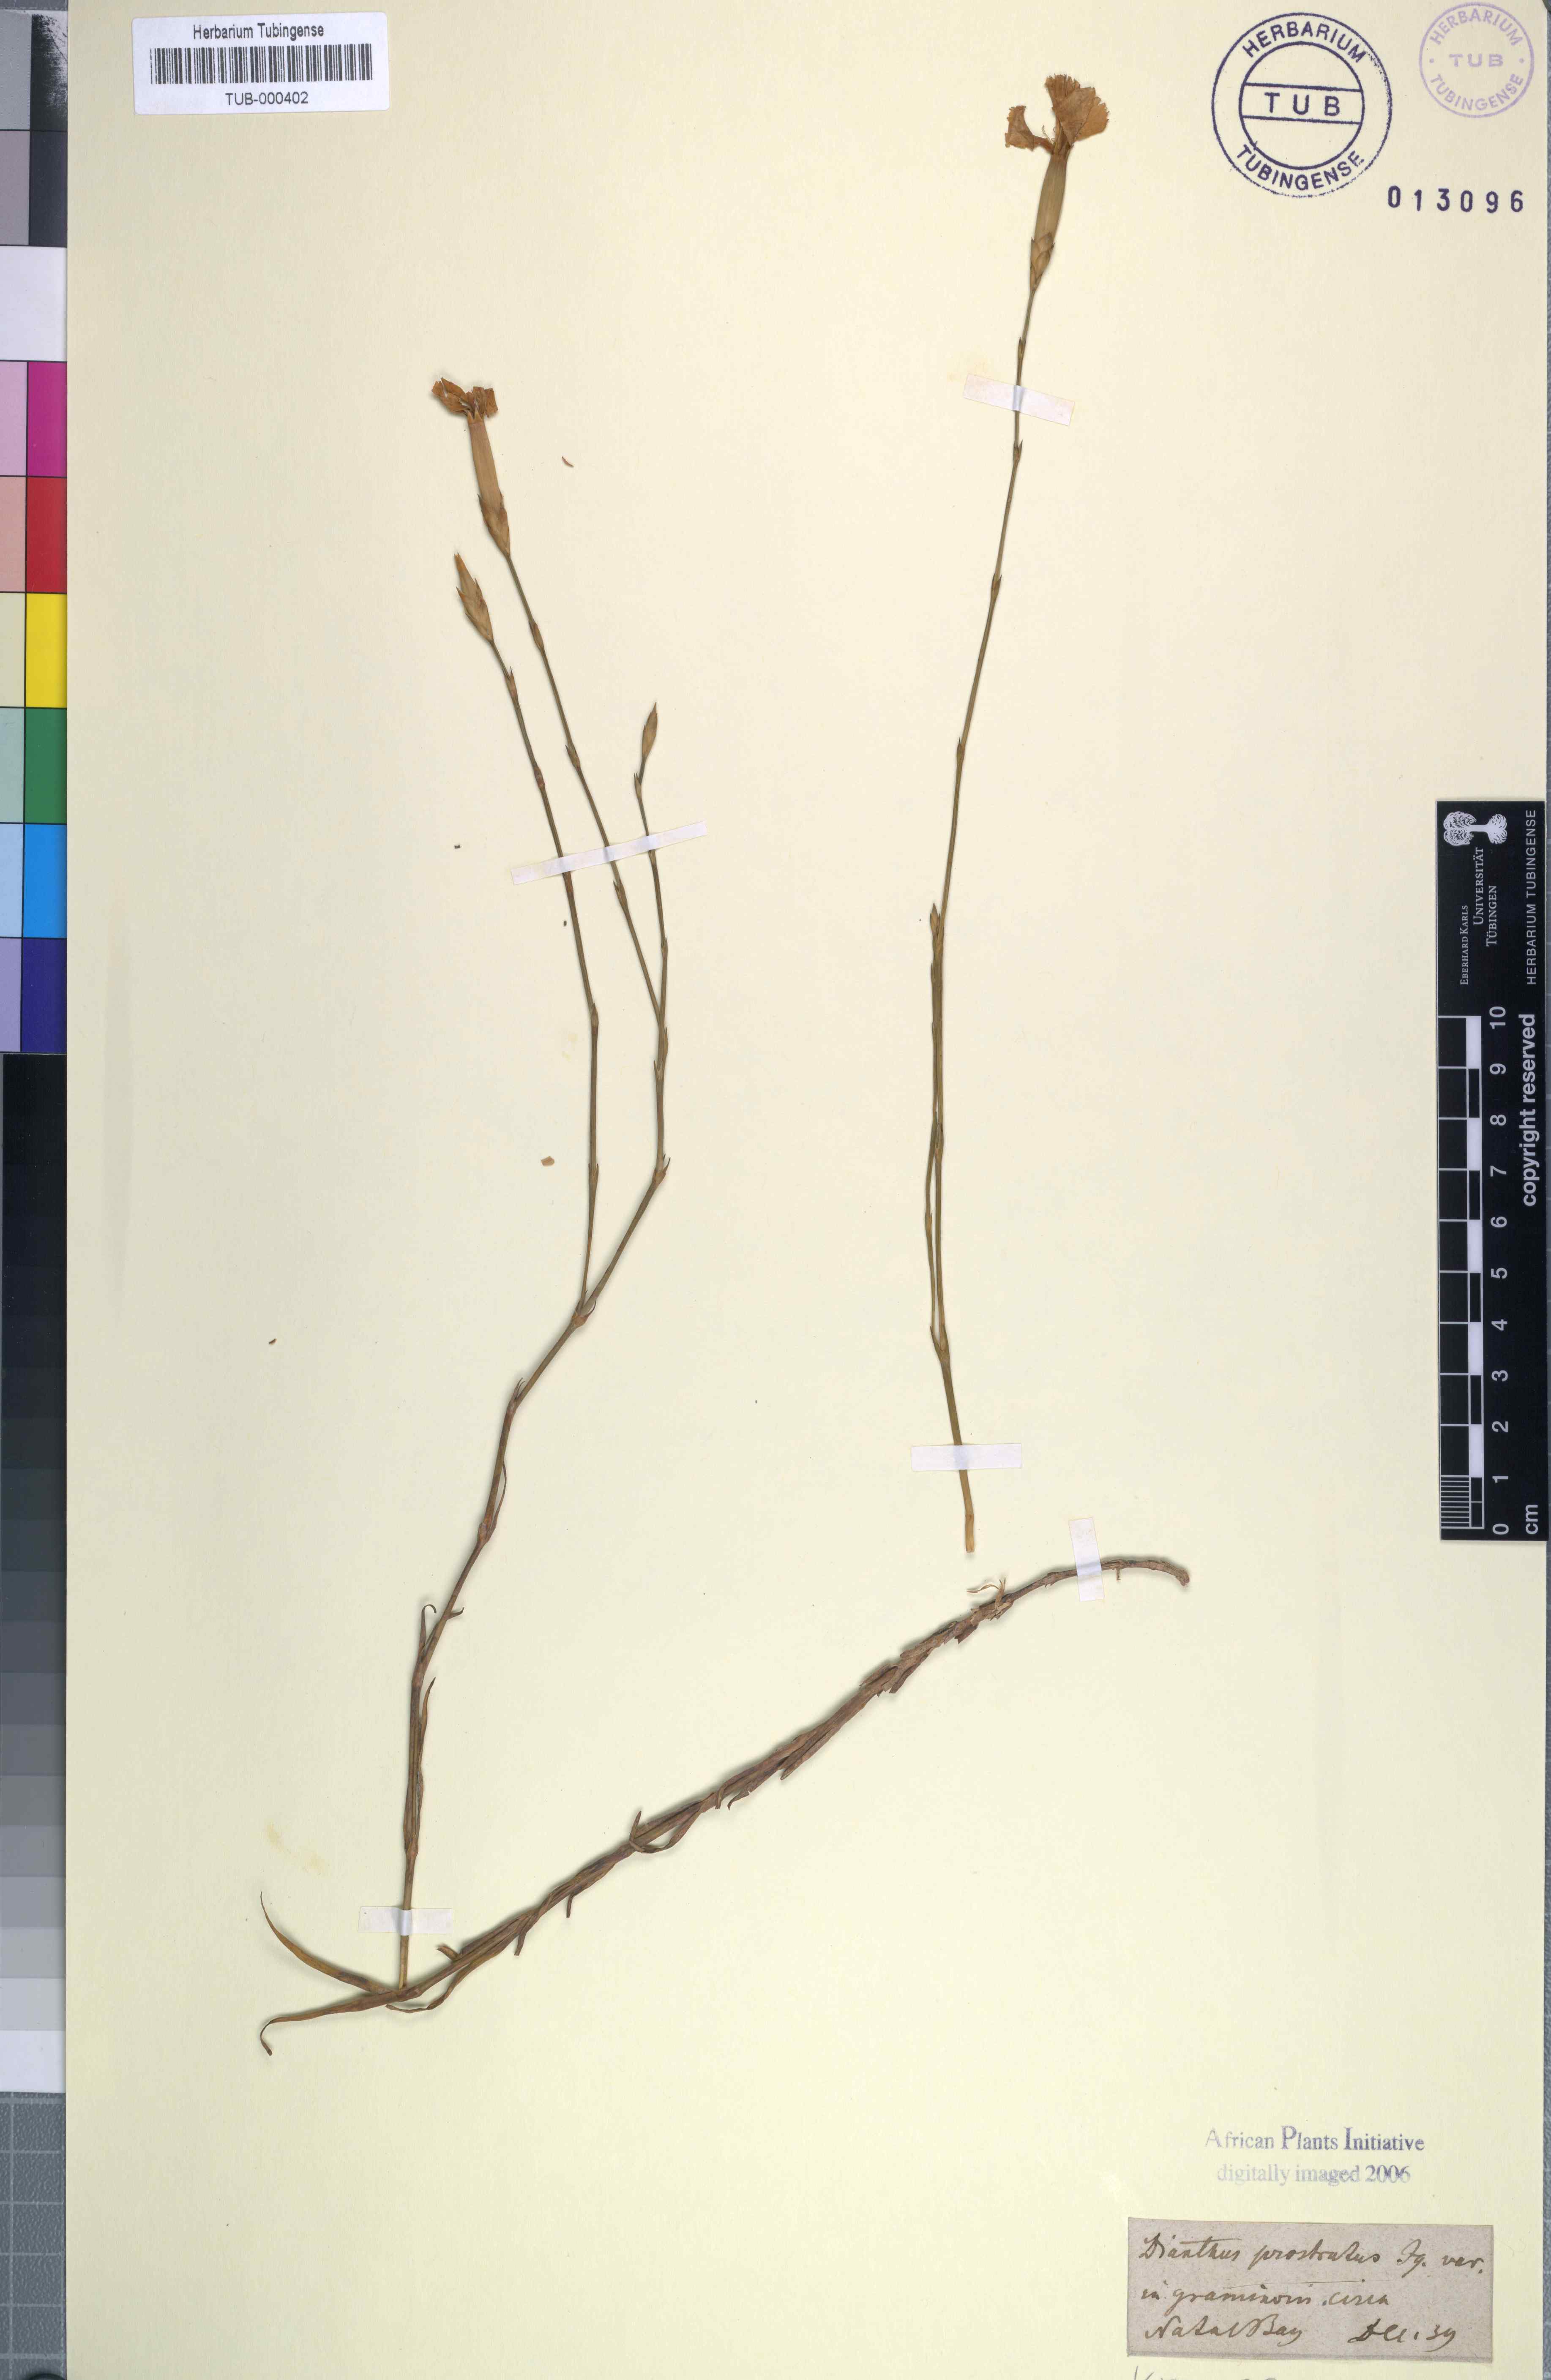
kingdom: Plantae
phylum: Tracheophyta
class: Magnoliopsida
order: Caryophyllales
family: Caryophyllaceae
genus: Dianthus
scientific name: Dianthus caespitosus
